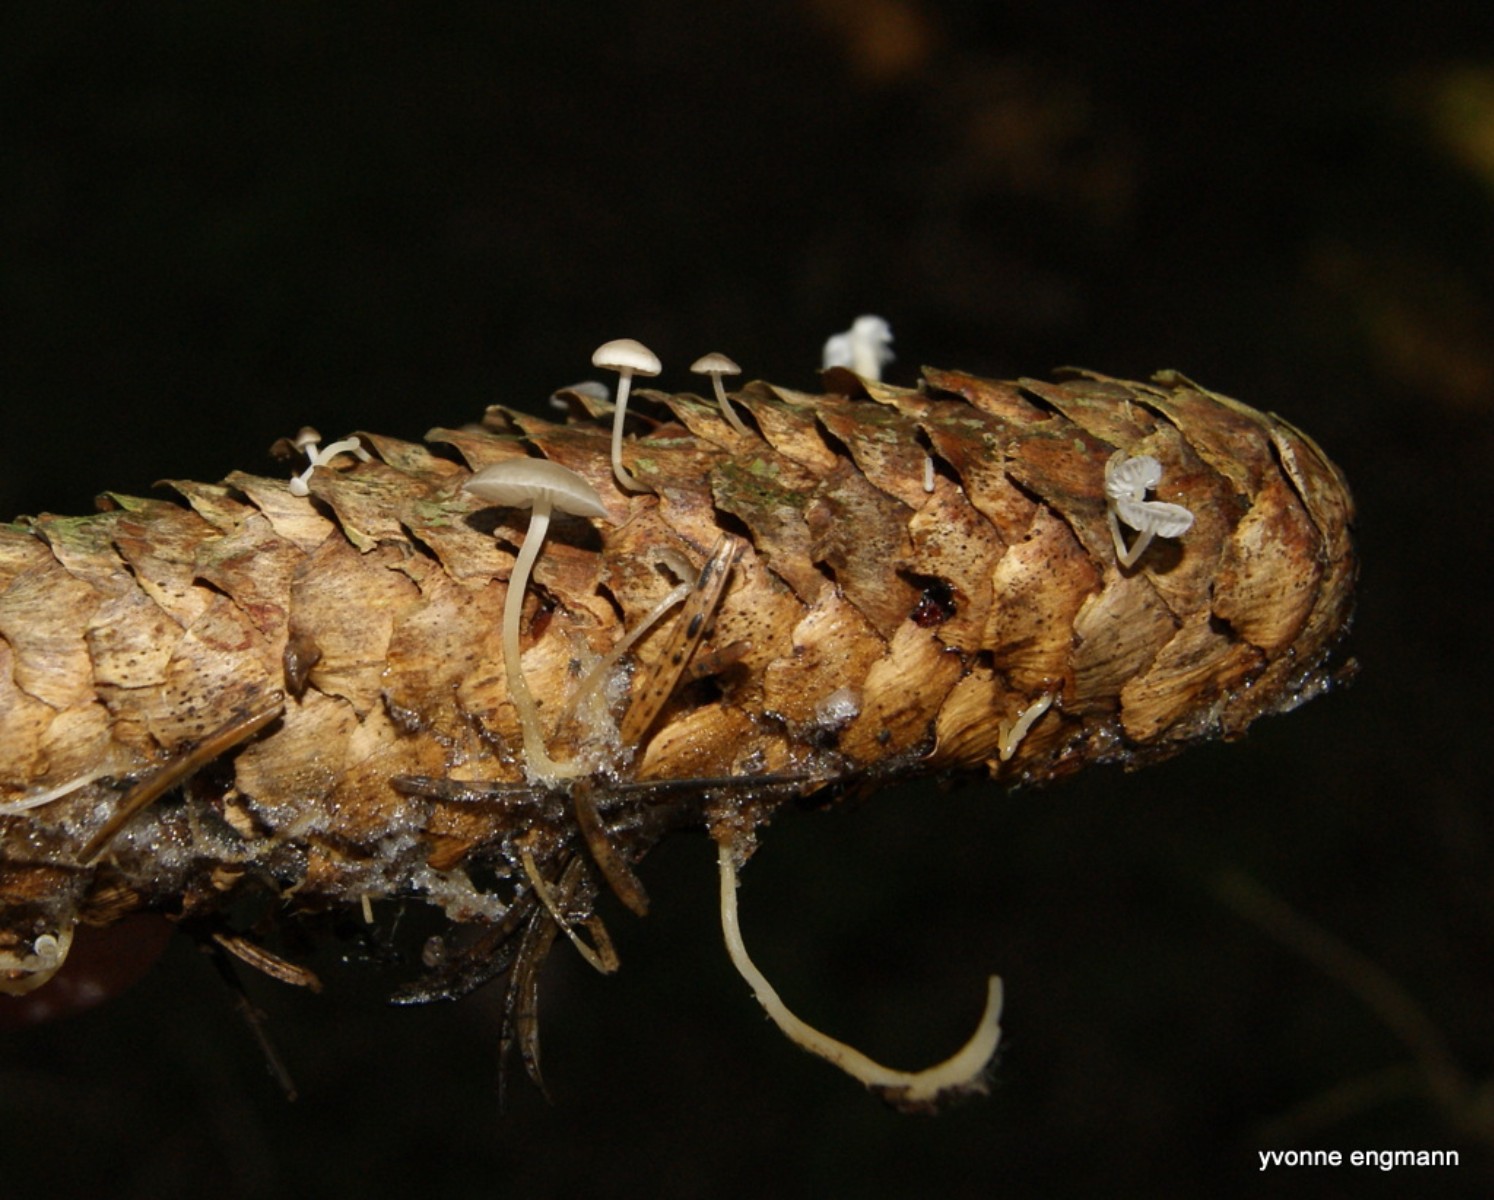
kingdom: Fungi
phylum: Basidiomycota
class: Agaricomycetes
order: Agaricales
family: Physalacriaceae
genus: Strobilurus
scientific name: Strobilurus esculentus
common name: gran-koglehat
